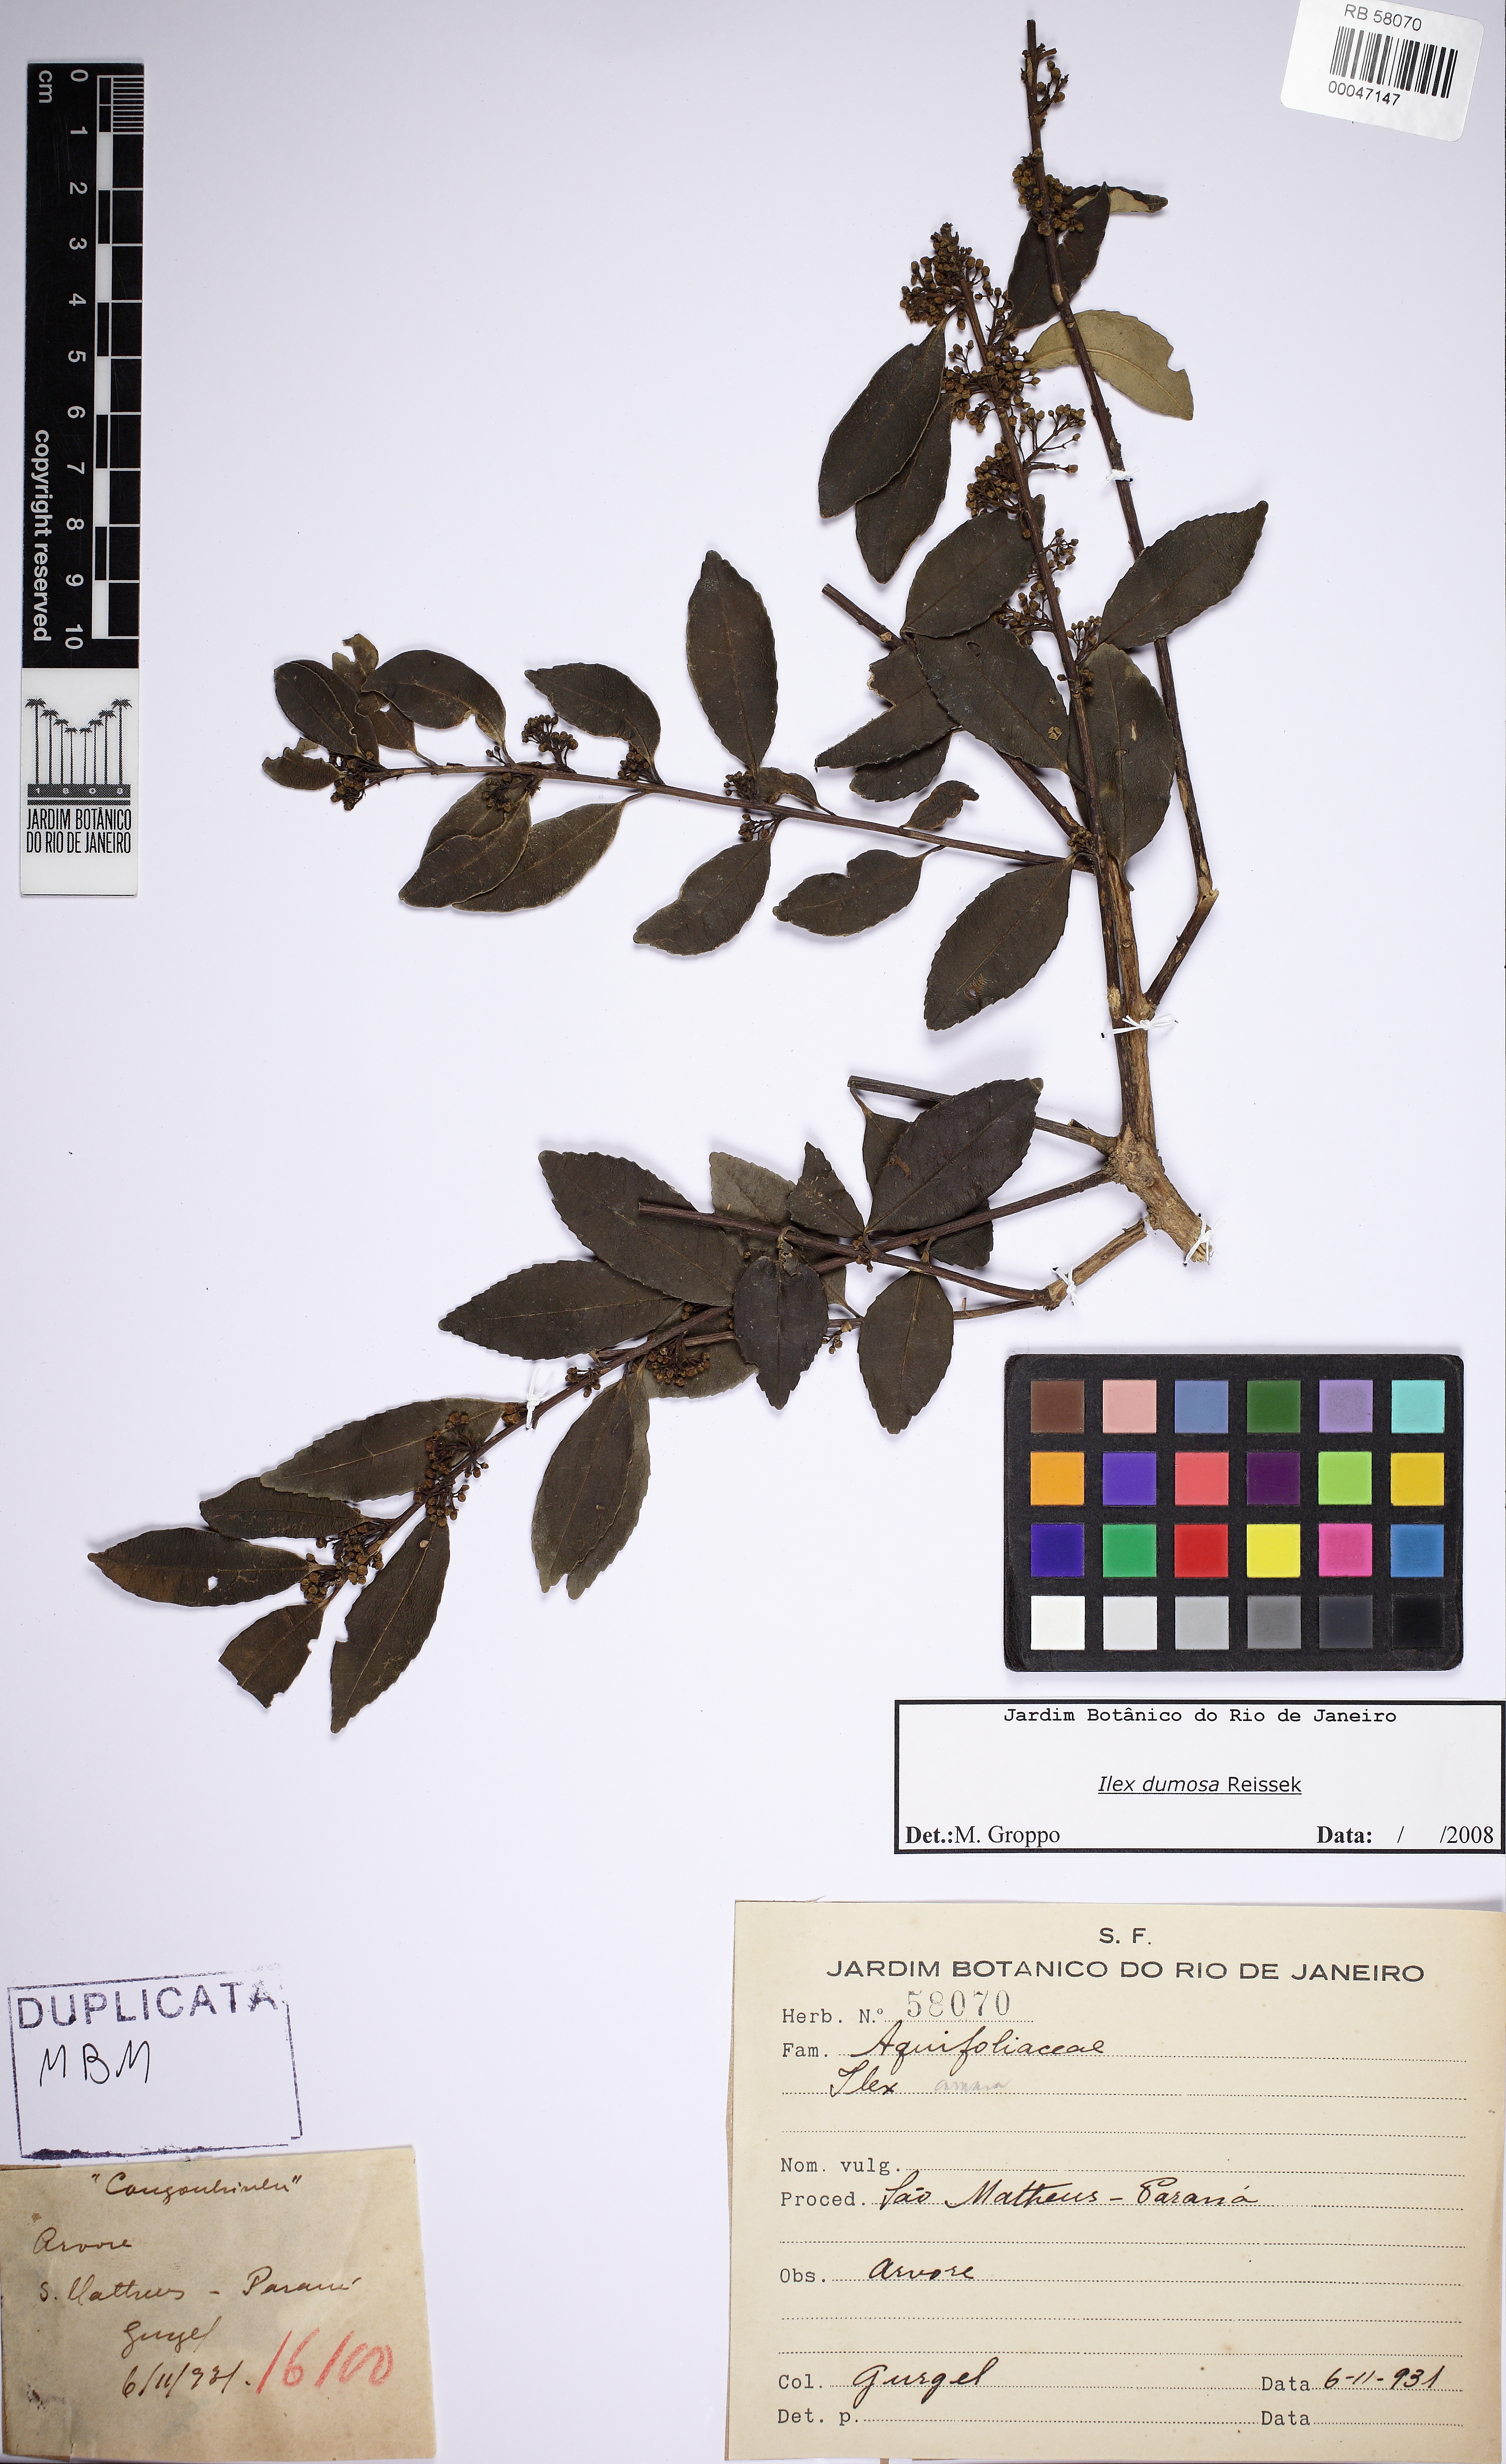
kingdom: Plantae
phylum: Tracheophyta
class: Magnoliopsida
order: Aquifoliales
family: Aquifoliaceae
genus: Ilex
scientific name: Ilex dumosa
